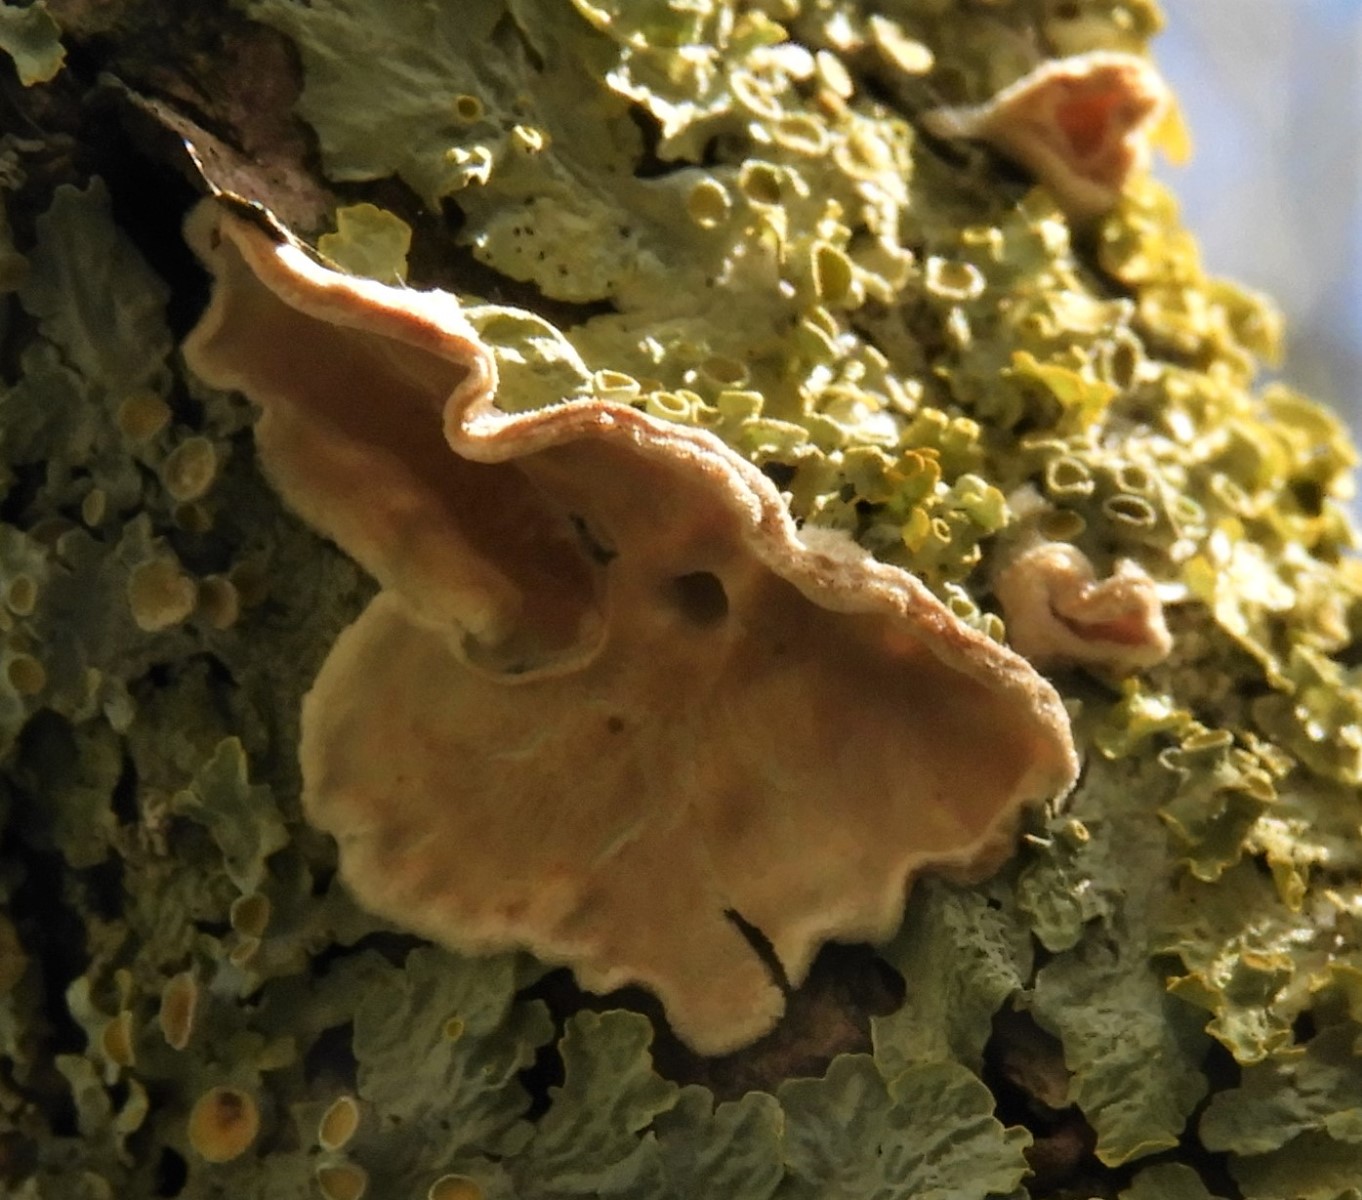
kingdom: Fungi
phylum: Basidiomycota
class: Agaricomycetes
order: Polyporales
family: Irpicaceae
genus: Byssomerulius
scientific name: Byssomerulius corium
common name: læder-åresvamp
